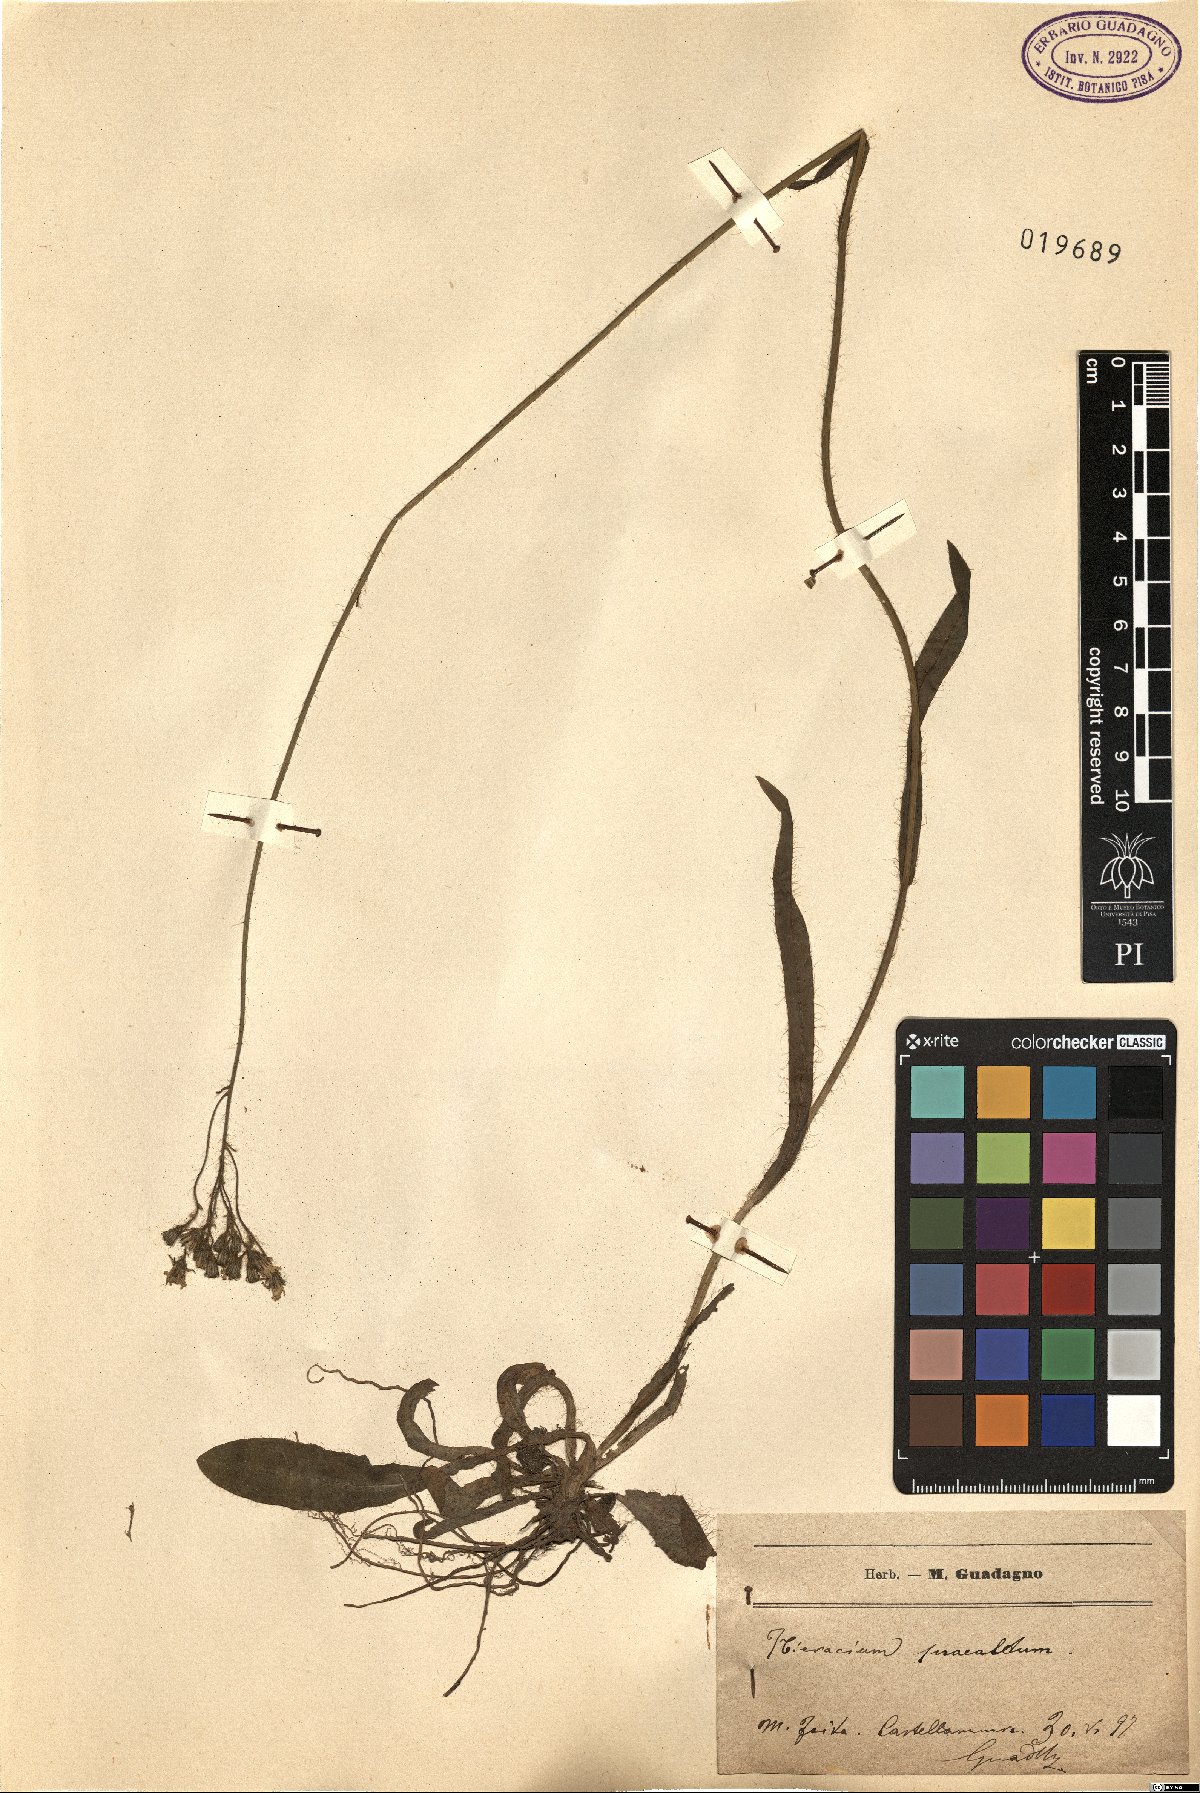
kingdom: Plantae
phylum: Tracheophyta
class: Magnoliopsida
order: Asterales
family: Asteraceae
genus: Pilosella
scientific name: Pilosella piloselloides
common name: Glaucous king-devil
